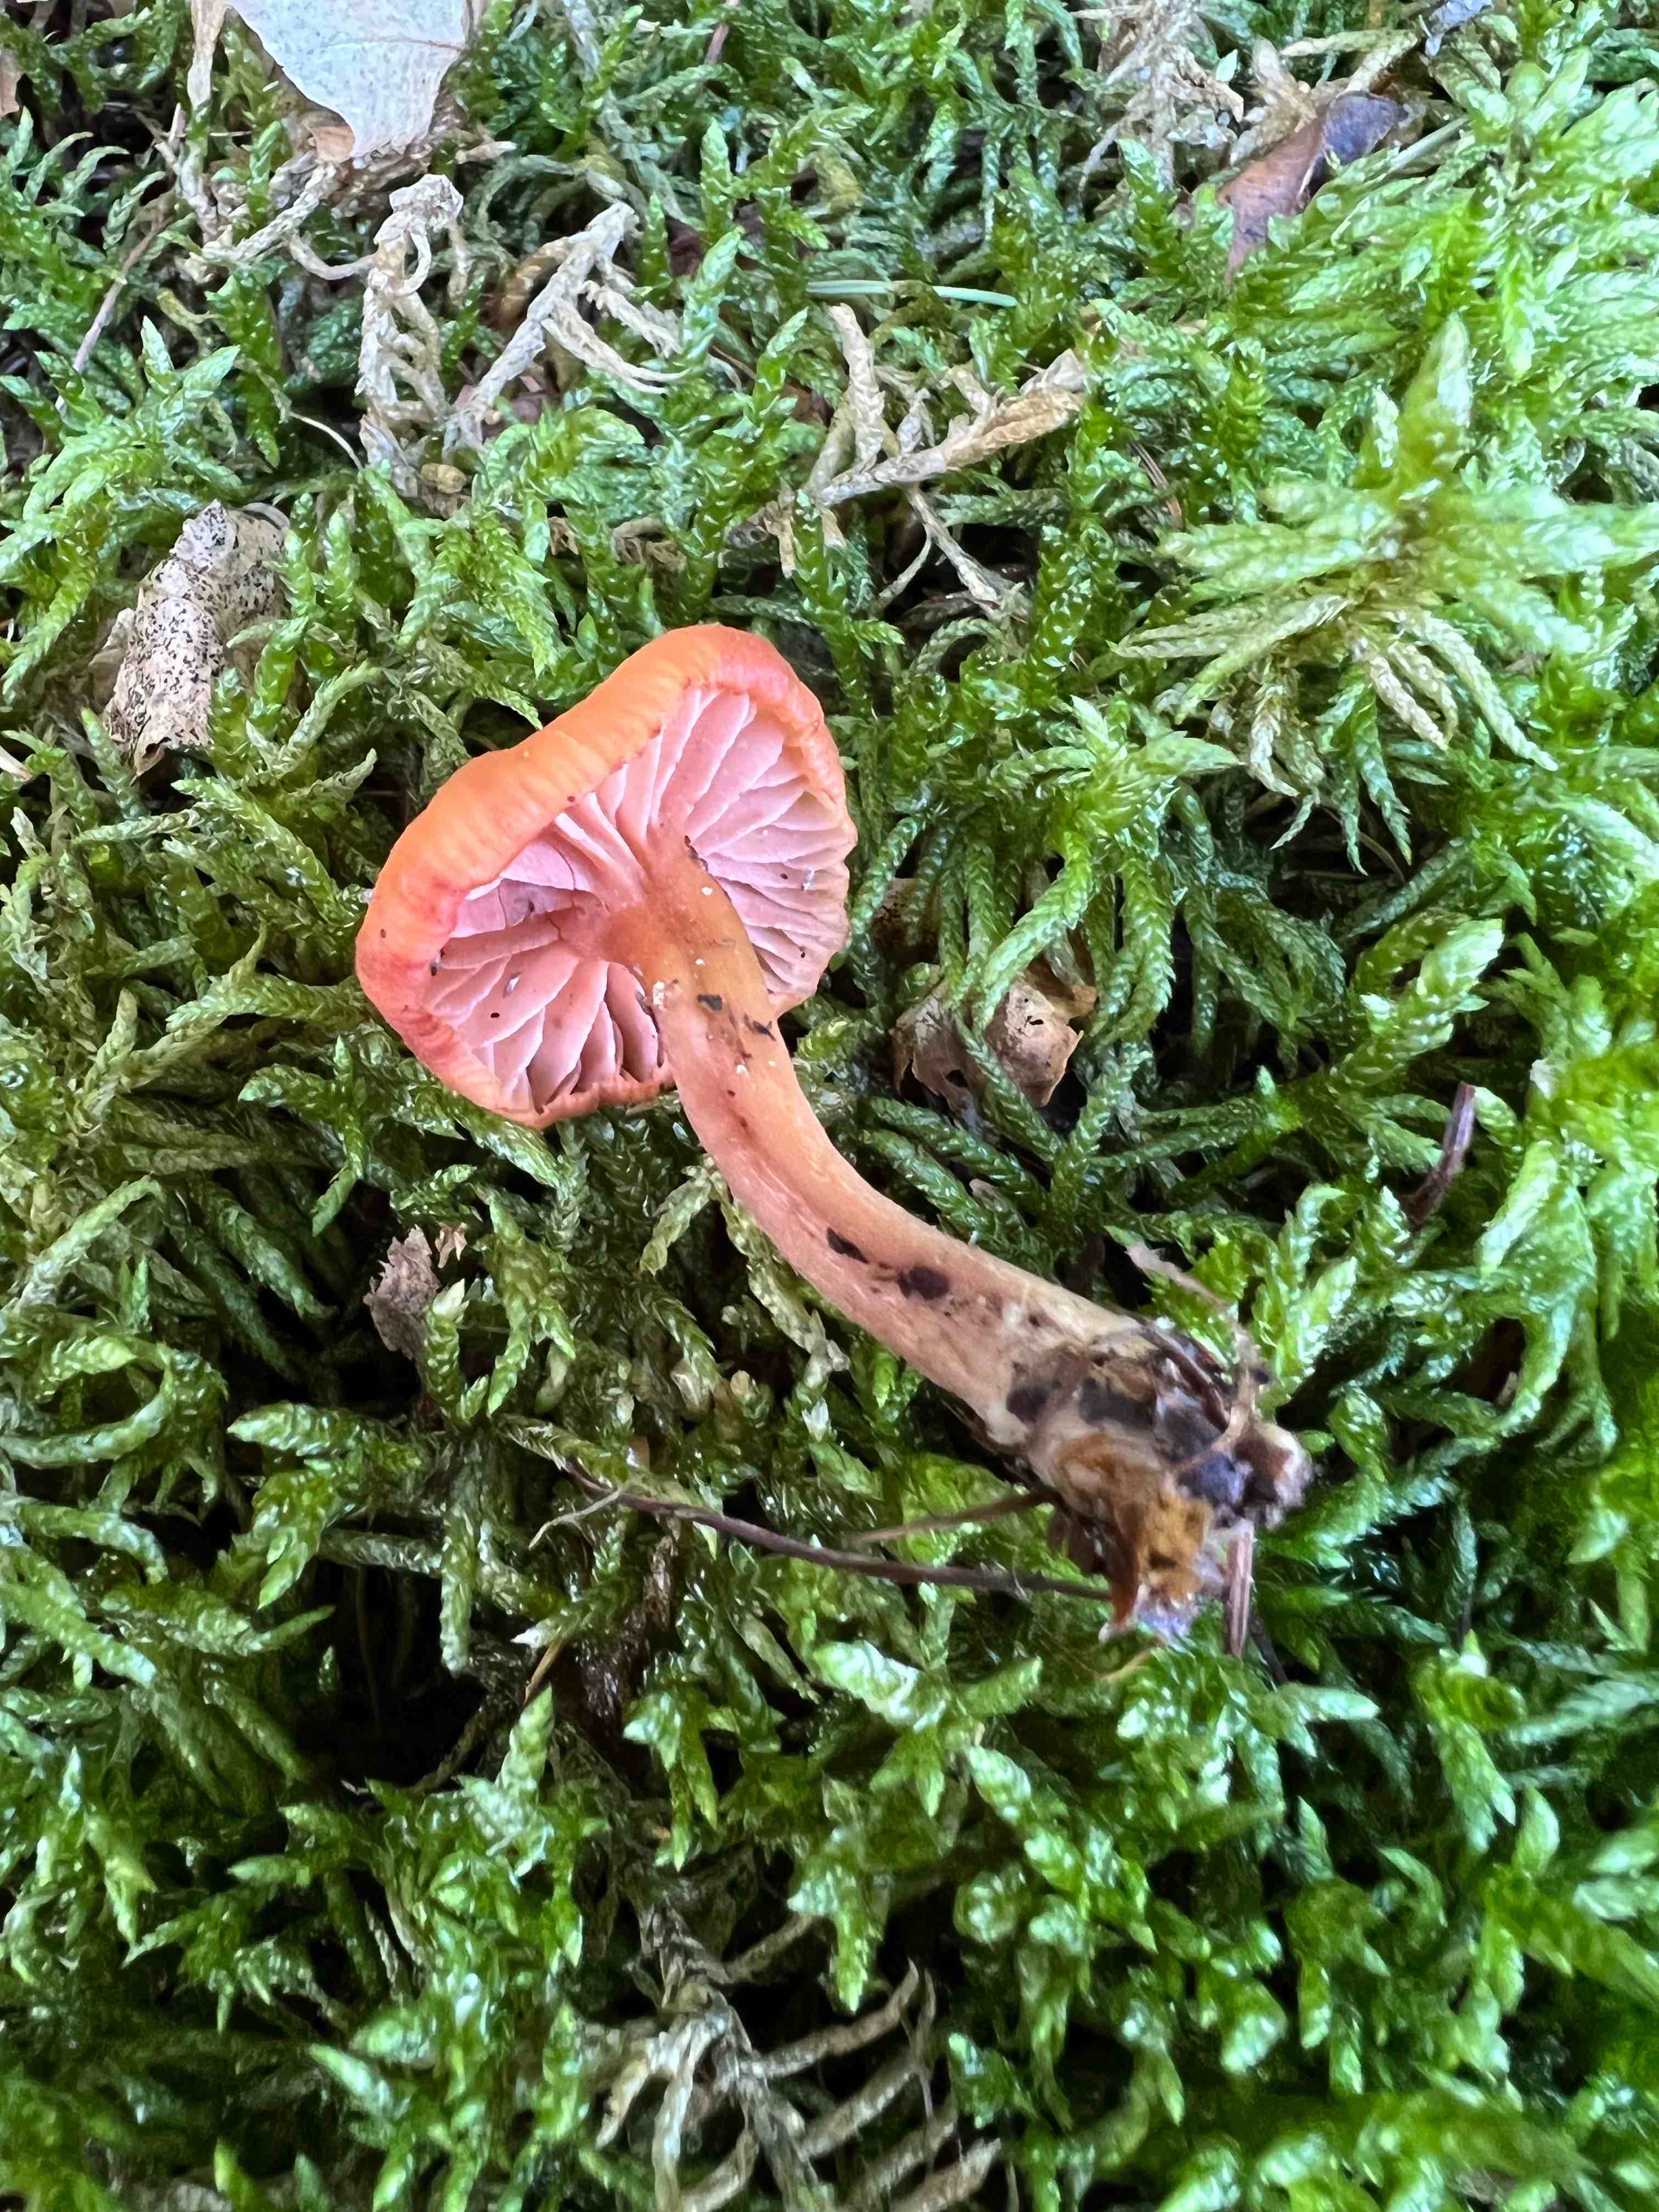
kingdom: Fungi
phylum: Basidiomycota
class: Agaricomycetes
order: Agaricales
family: Hydnangiaceae
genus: Laccaria
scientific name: Laccaria laccata
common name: rød ametysthat
